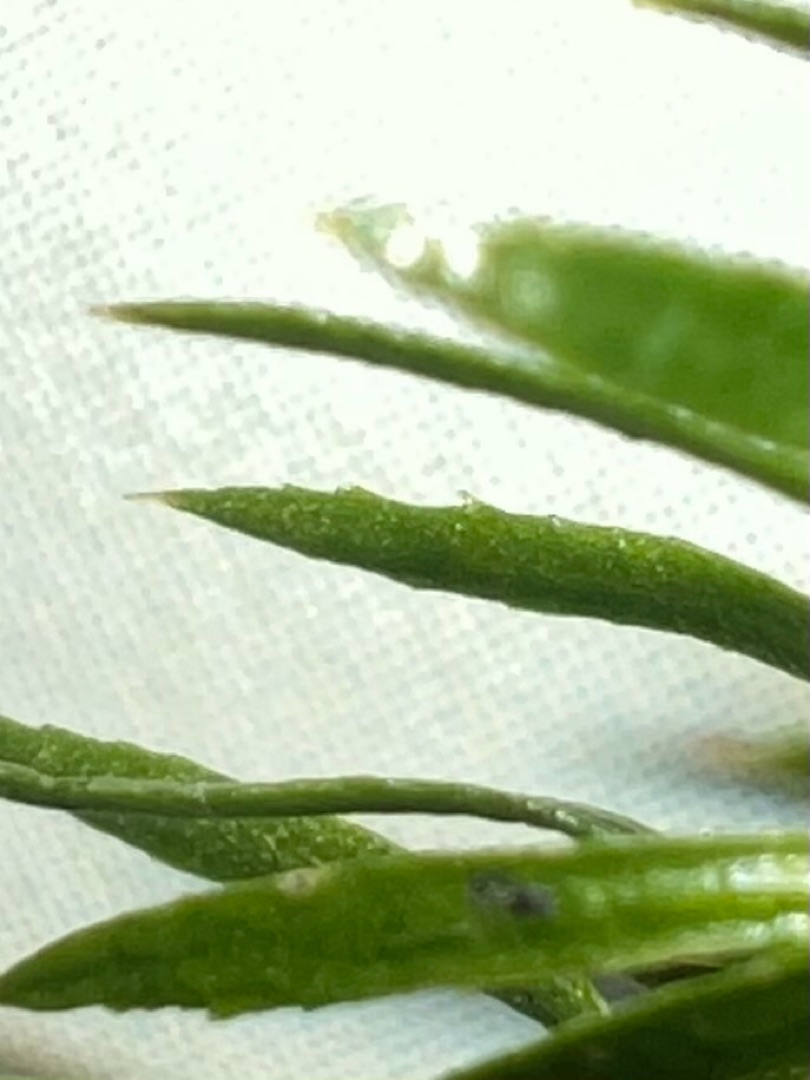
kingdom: Plantae
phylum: Tracheophyta
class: Lycopodiopsida
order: Lycopodiales
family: Lycopodiaceae
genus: Spinulum
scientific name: Spinulum annotinum
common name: Femradet ulvefod
